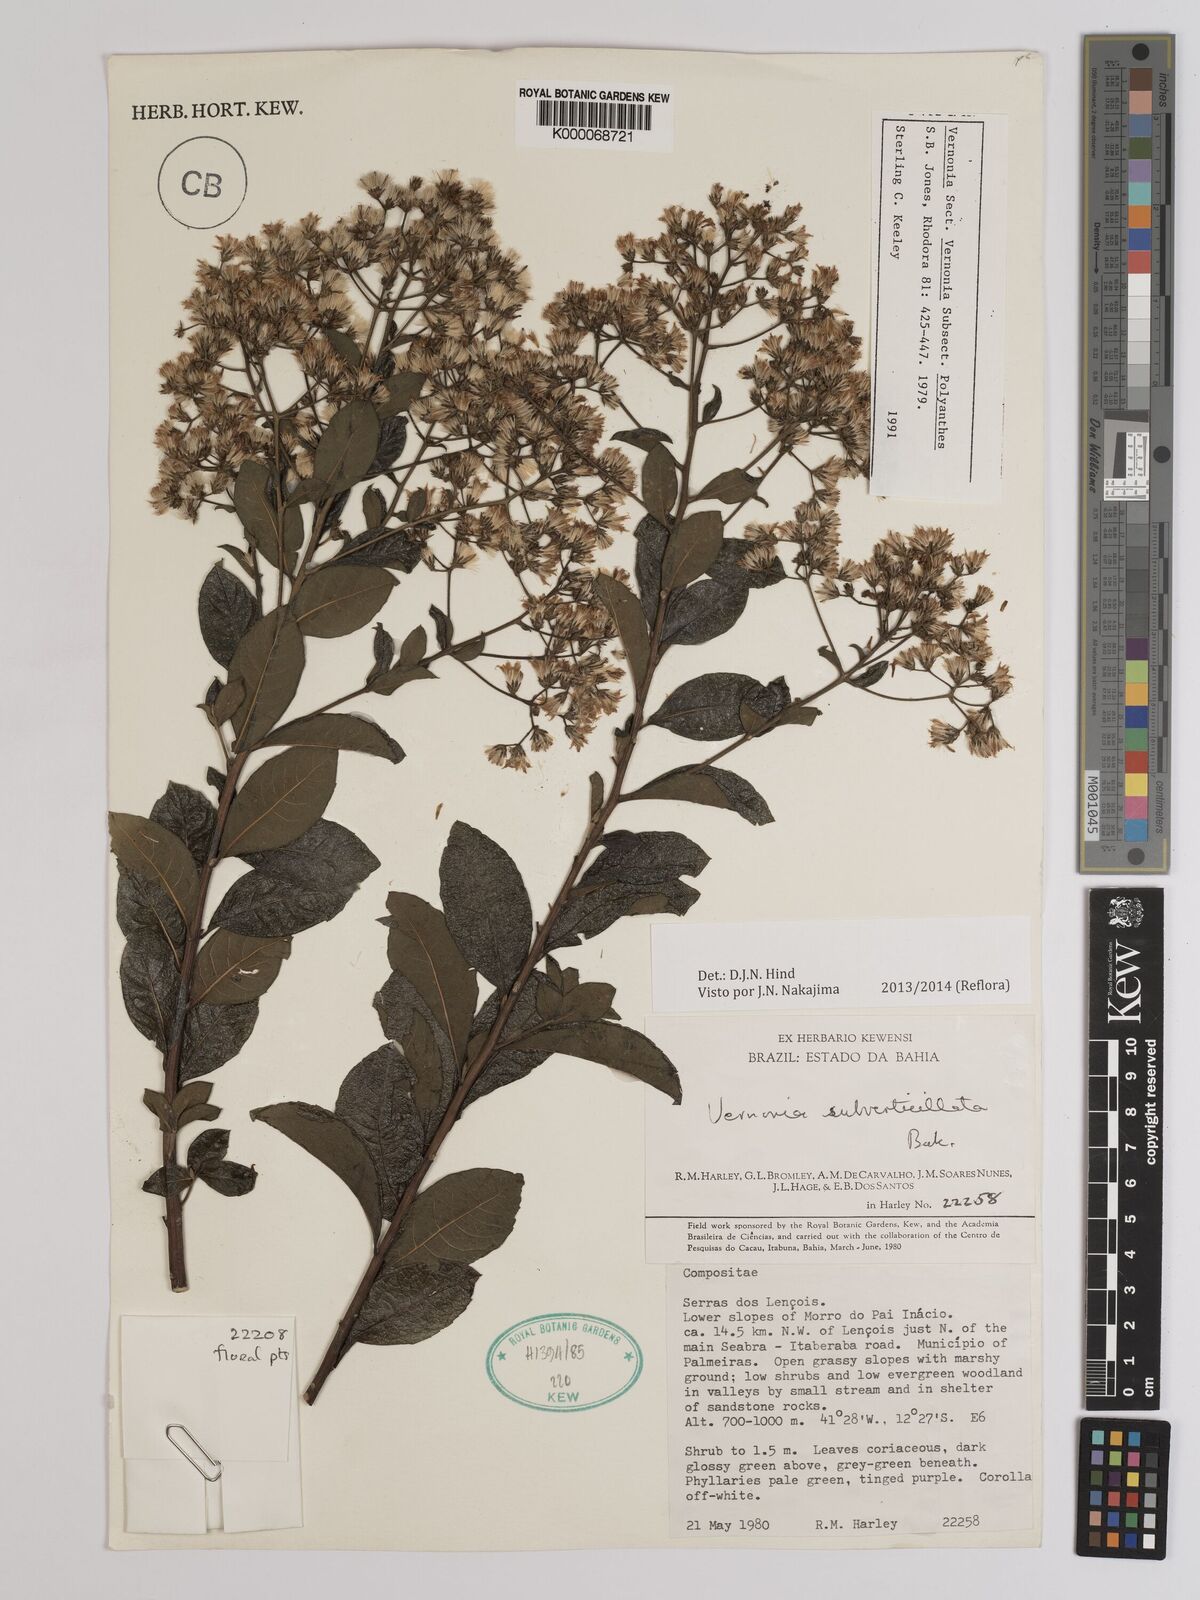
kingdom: Plantae
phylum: Tracheophyta
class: Magnoliopsida
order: Asterales
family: Asteraceae
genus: Vernonia
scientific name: Vernonia
